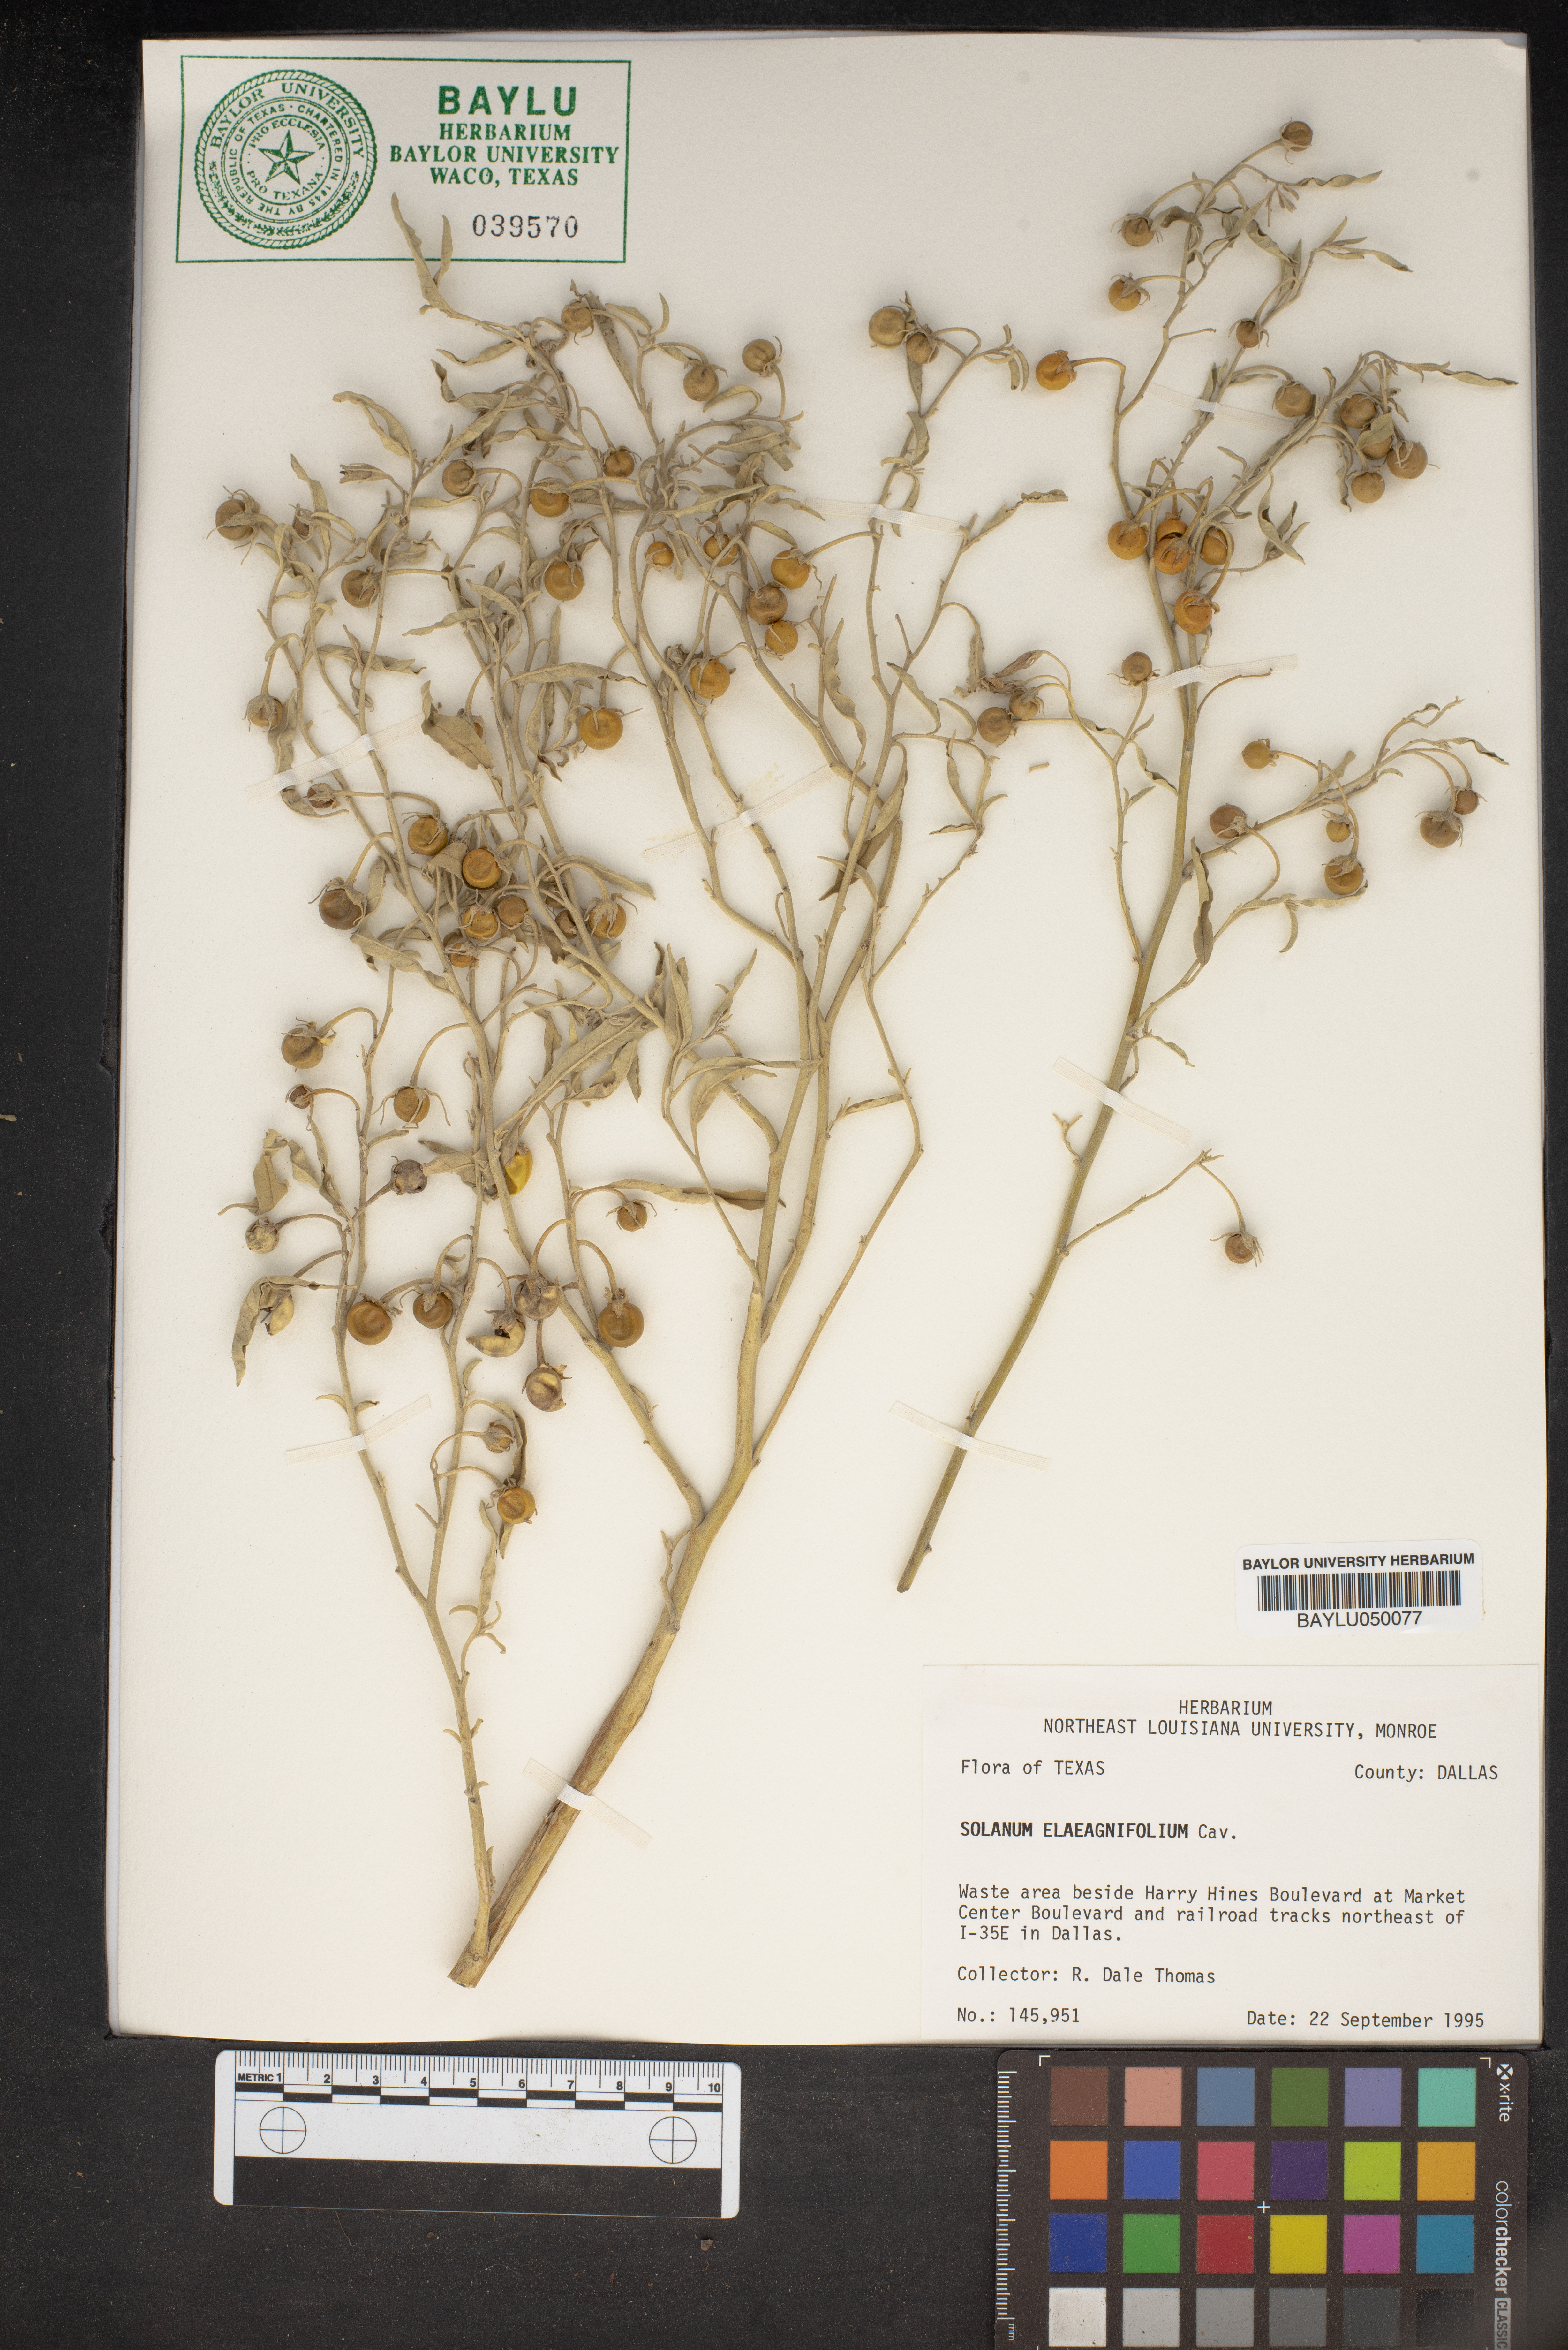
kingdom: Plantae
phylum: Tracheophyta
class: Magnoliopsida
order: Solanales
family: Solanaceae
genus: Solanum
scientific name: Solanum elaeagnifolium
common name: Silverleaf nightshade
